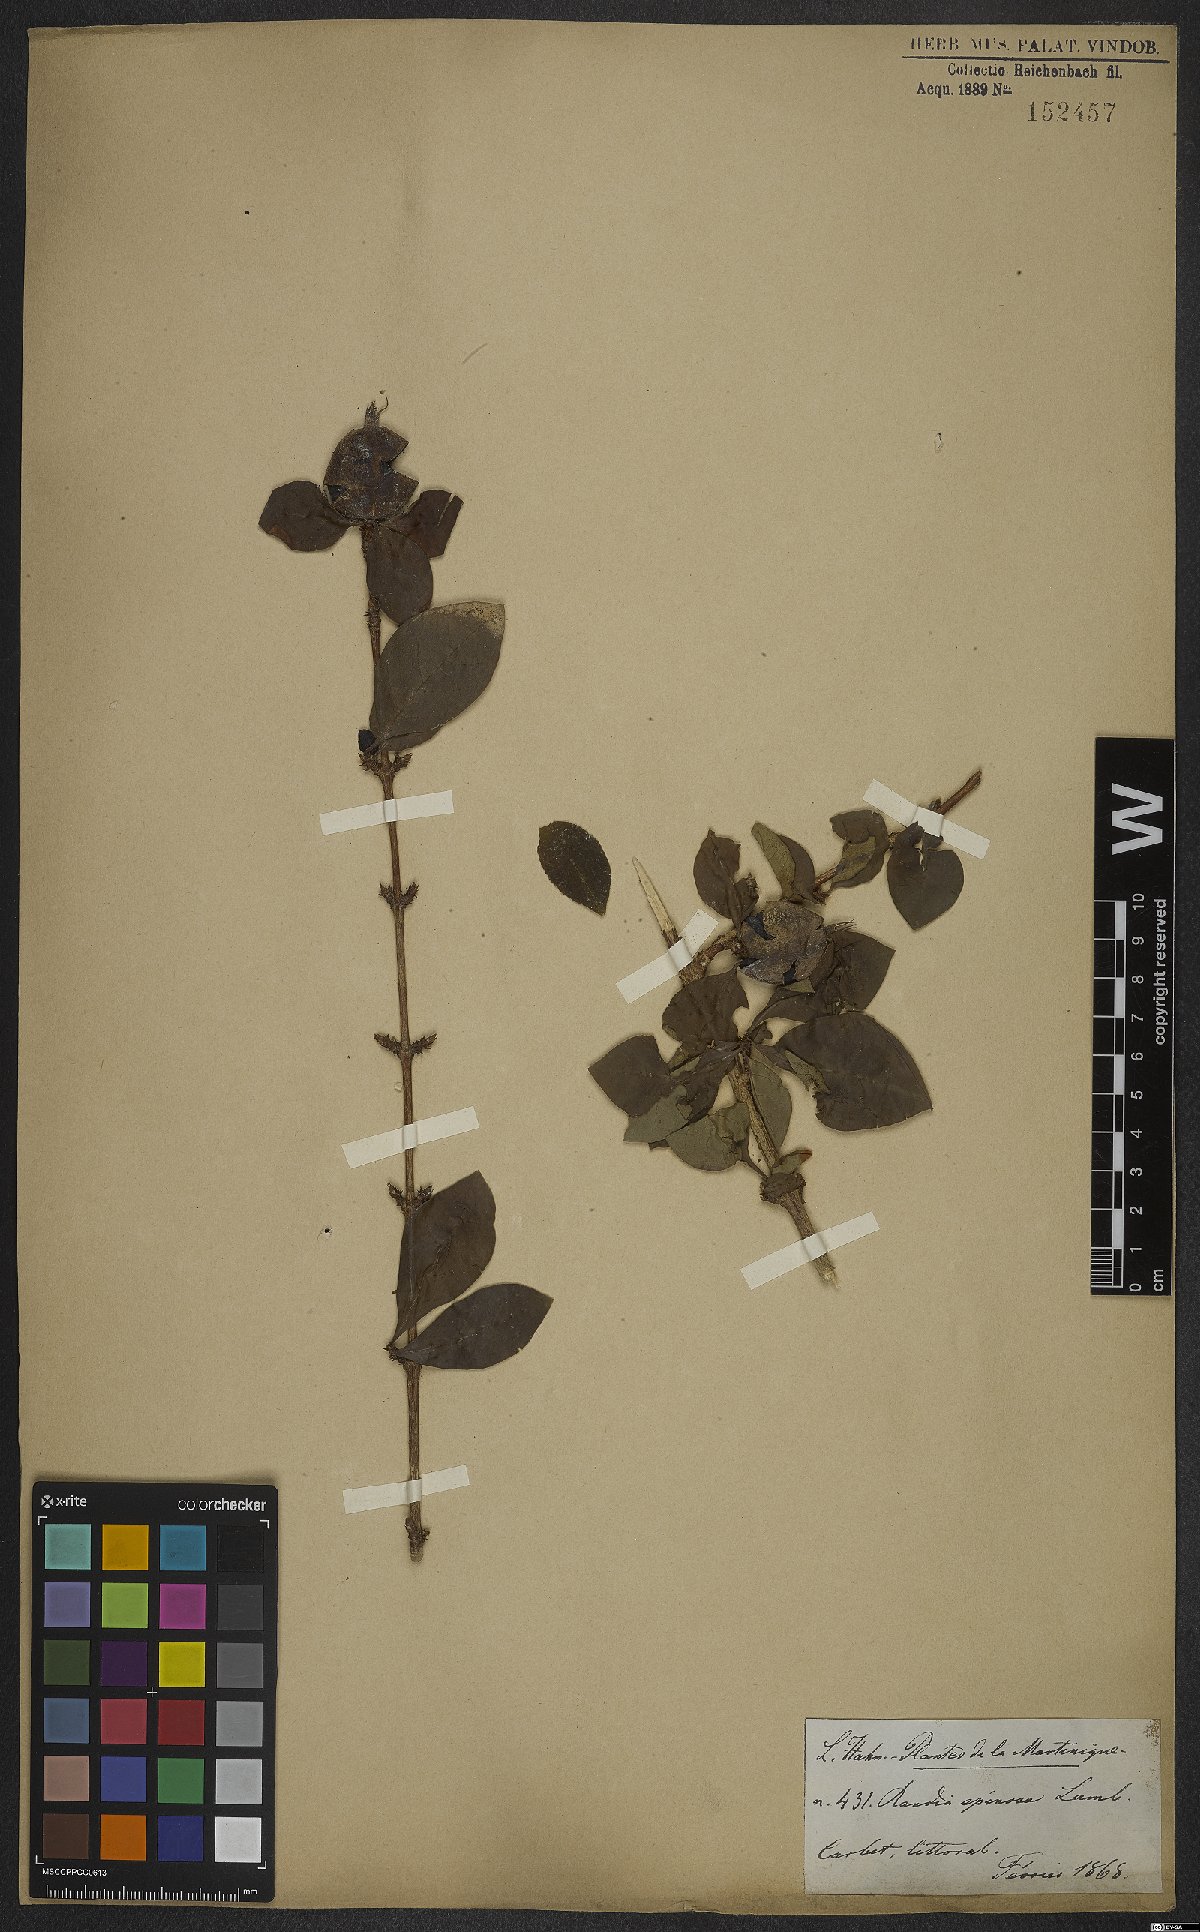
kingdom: Plantae
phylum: Tracheophyta
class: Magnoliopsida
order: Gentianales
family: Rubiaceae
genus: Randia
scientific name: Randia armata
